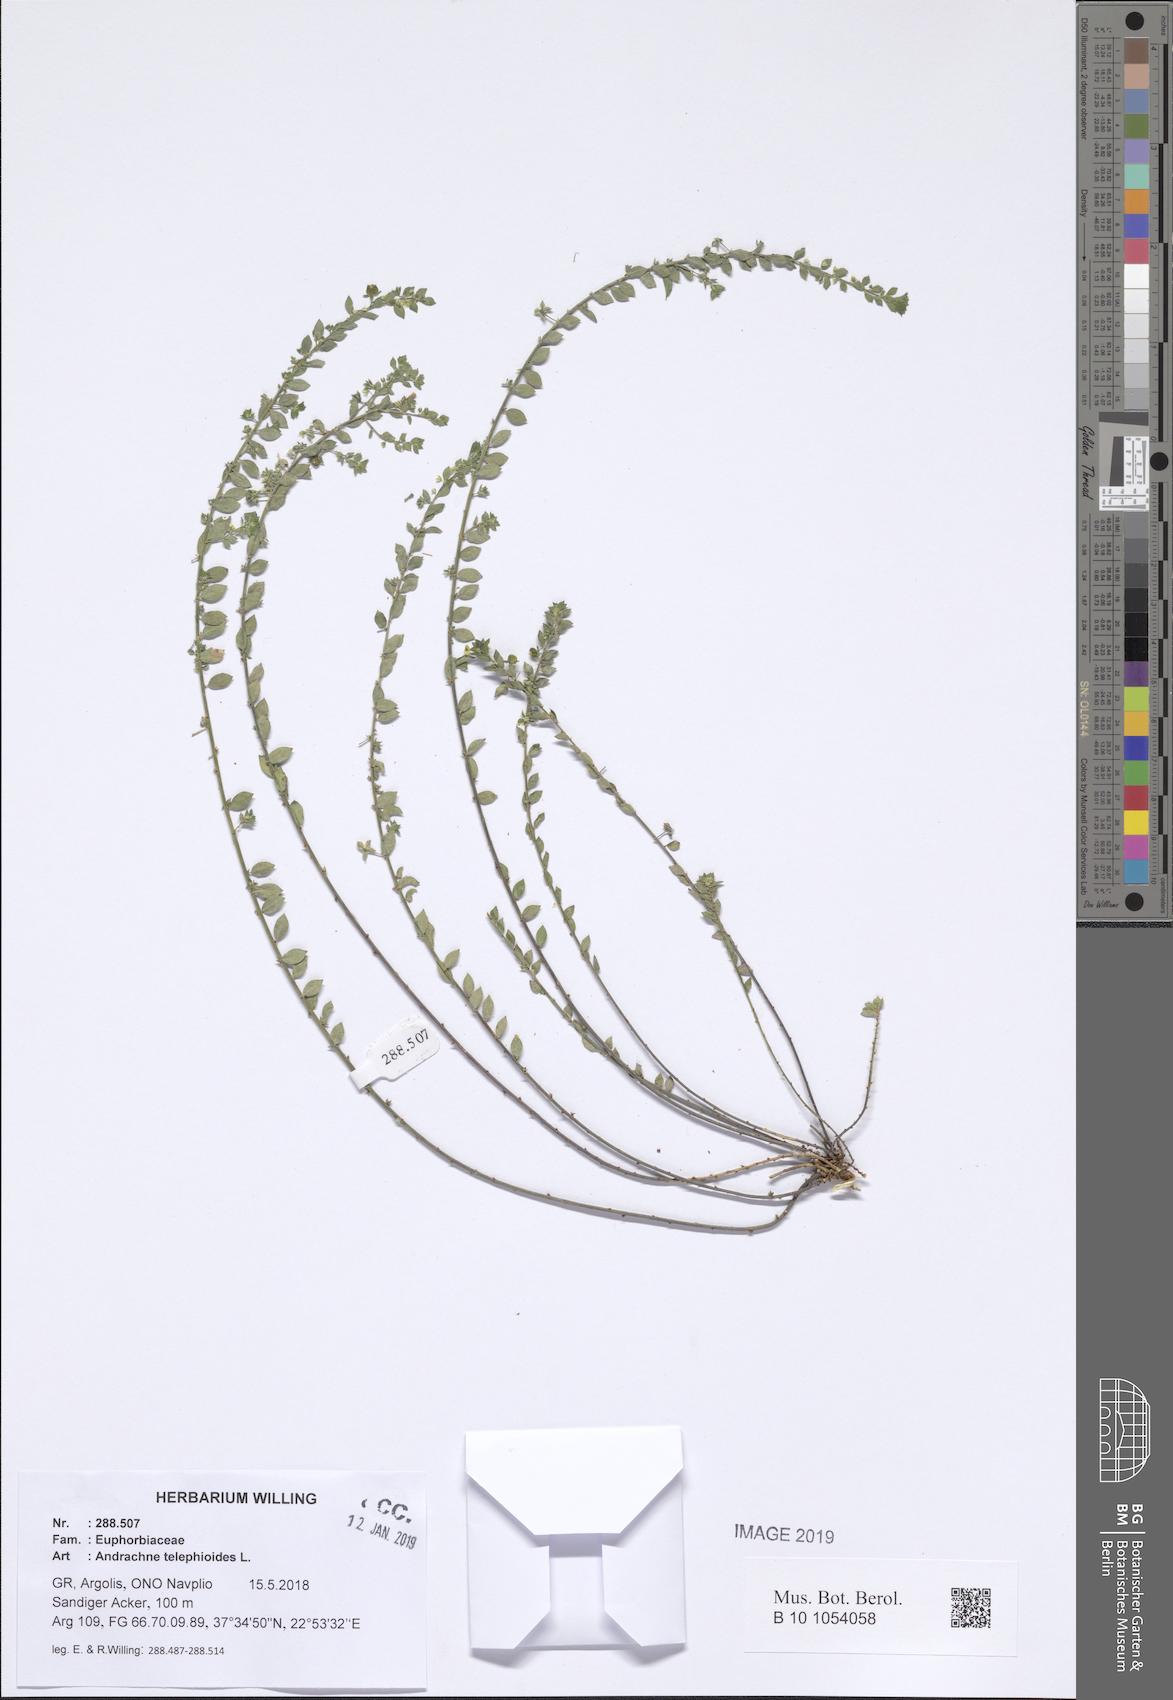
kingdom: Plantae
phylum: Tracheophyta
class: Magnoliopsida
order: Malpighiales
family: Phyllanthaceae
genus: Andrachne
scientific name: Andrachne telephioides
